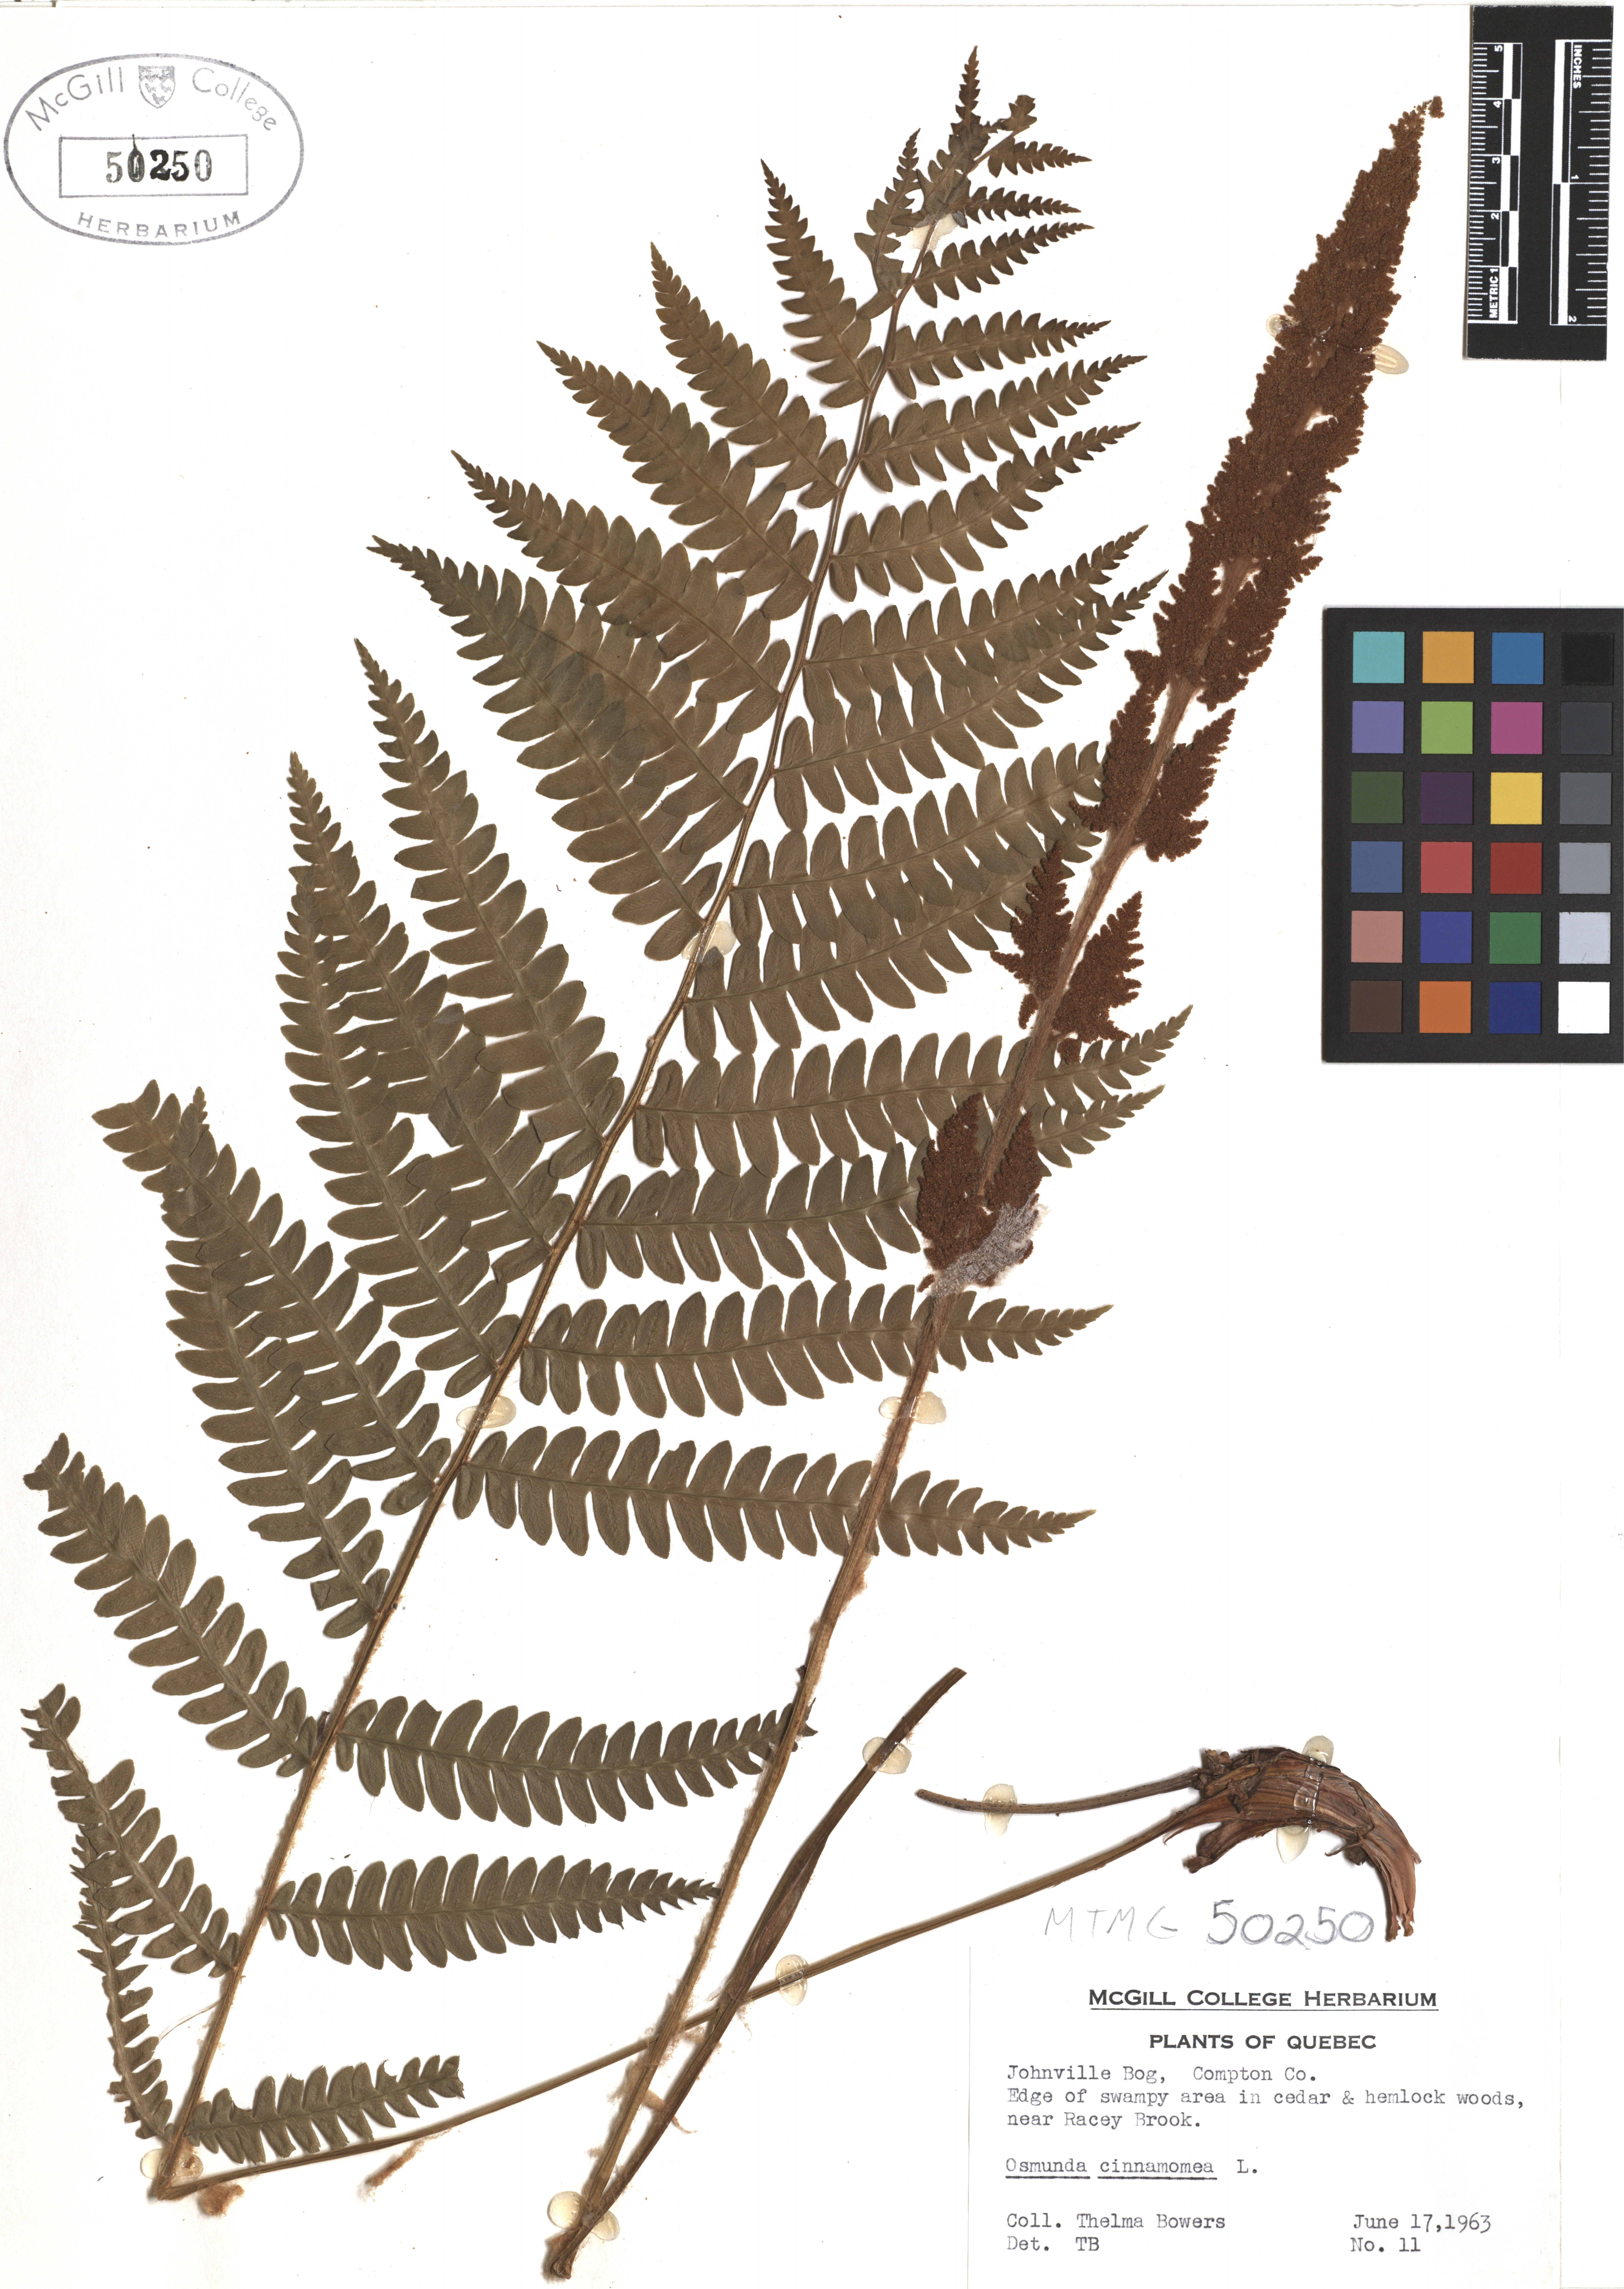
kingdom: Plantae
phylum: Tracheophyta
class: Polypodiopsida
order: Osmundales
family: Osmundaceae
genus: Osmundastrum
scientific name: Osmundastrum cinnamomeum
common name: Cinnamon fern
